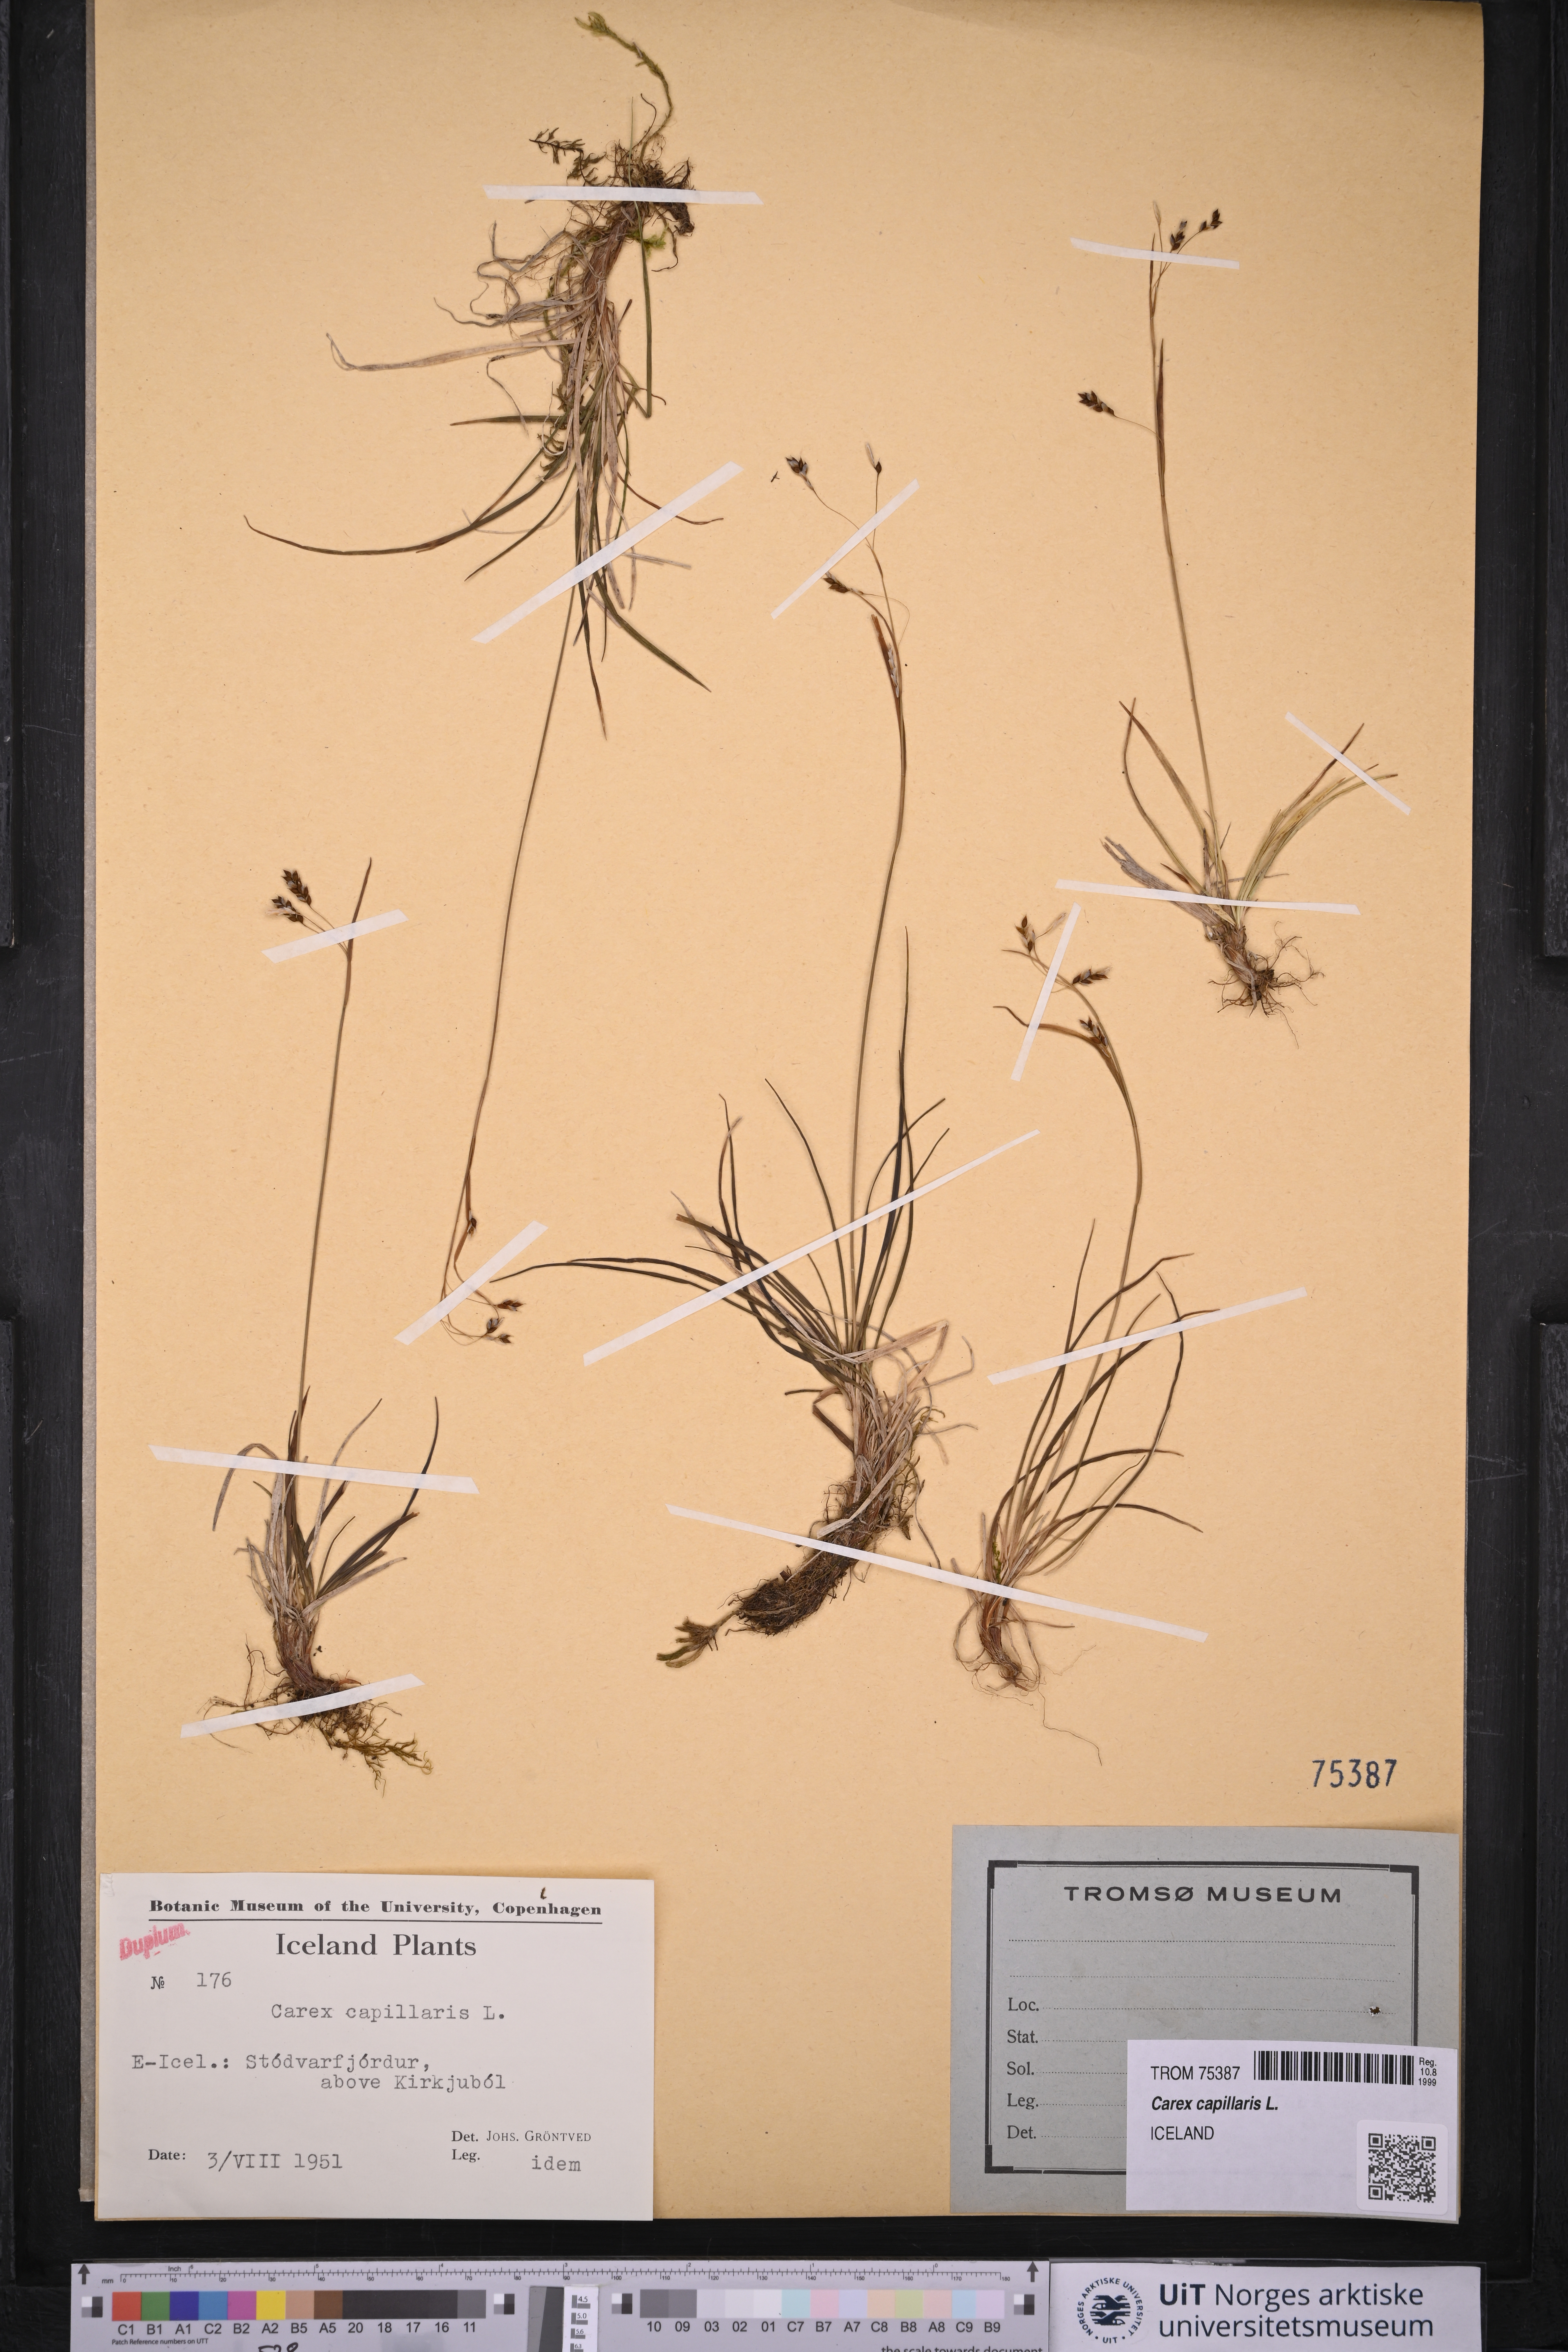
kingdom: Plantae
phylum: Tracheophyta
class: Liliopsida
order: Poales
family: Cyperaceae
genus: Carex
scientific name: Carex capillaris
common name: Hair sedge
